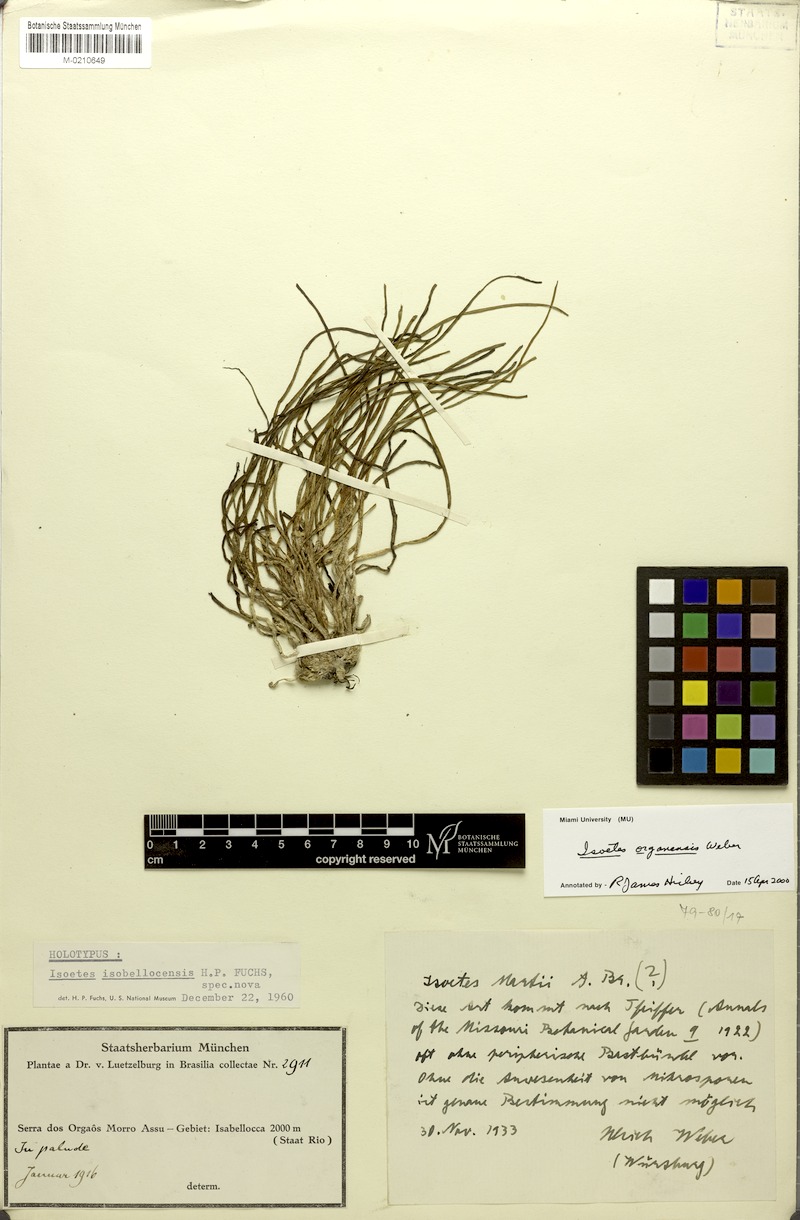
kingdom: Plantae
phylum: Tracheophyta
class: Lycopodiopsida
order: Isoetales
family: Isoetaceae
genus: Isoetes
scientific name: Isoetes organensis
